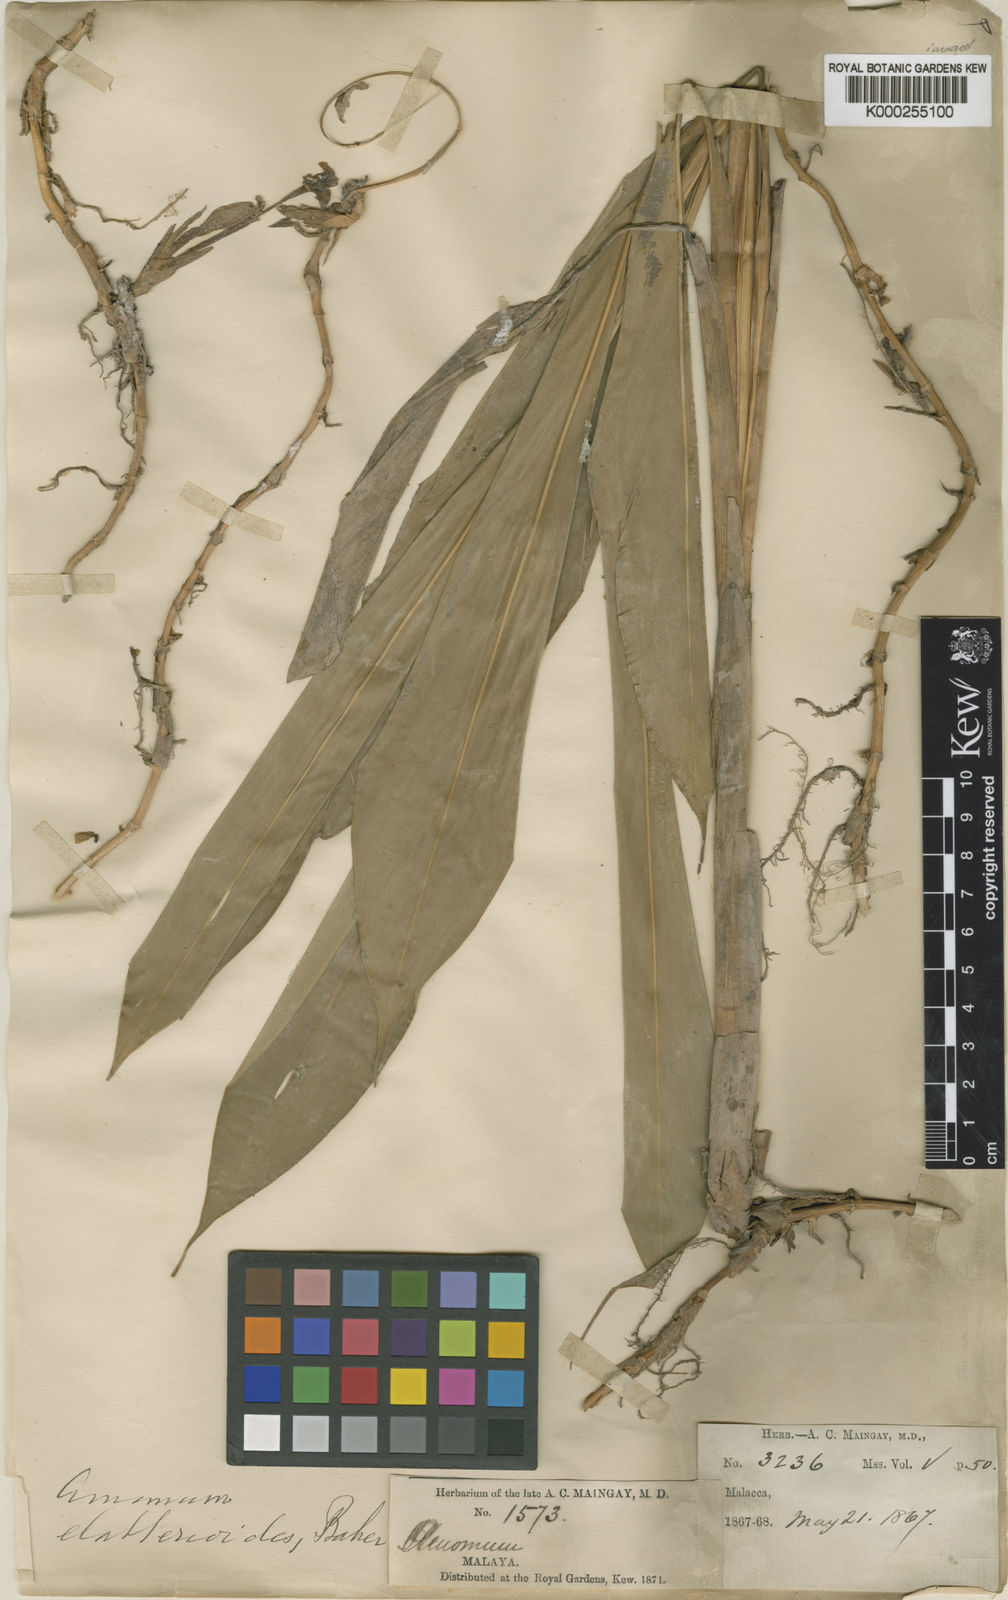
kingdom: Plantae
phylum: Tracheophyta
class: Liliopsida
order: Zingiberales
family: Zingiberaceae
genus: Wurfbainia
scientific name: Wurfbainia biflora
